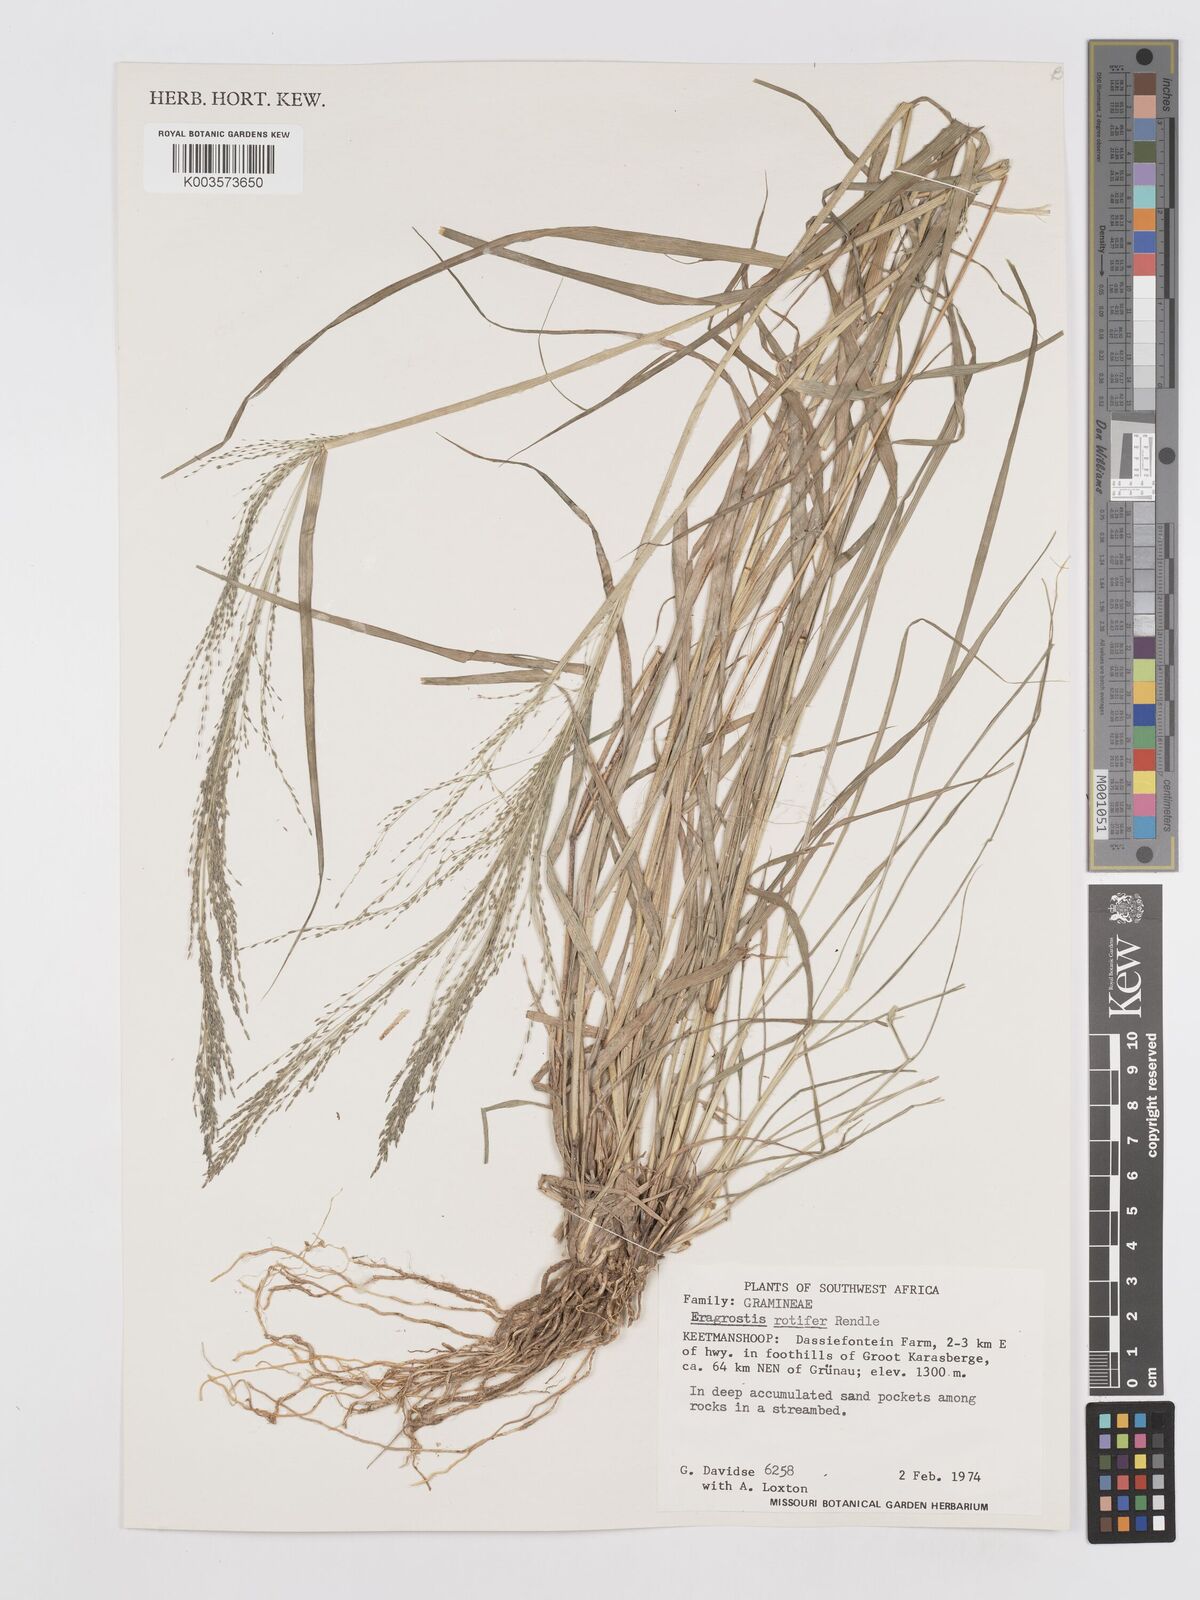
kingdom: Plantae
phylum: Tracheophyta
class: Liliopsida
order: Poales
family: Poaceae
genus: Eragrostis
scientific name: Eragrostis rotifer
